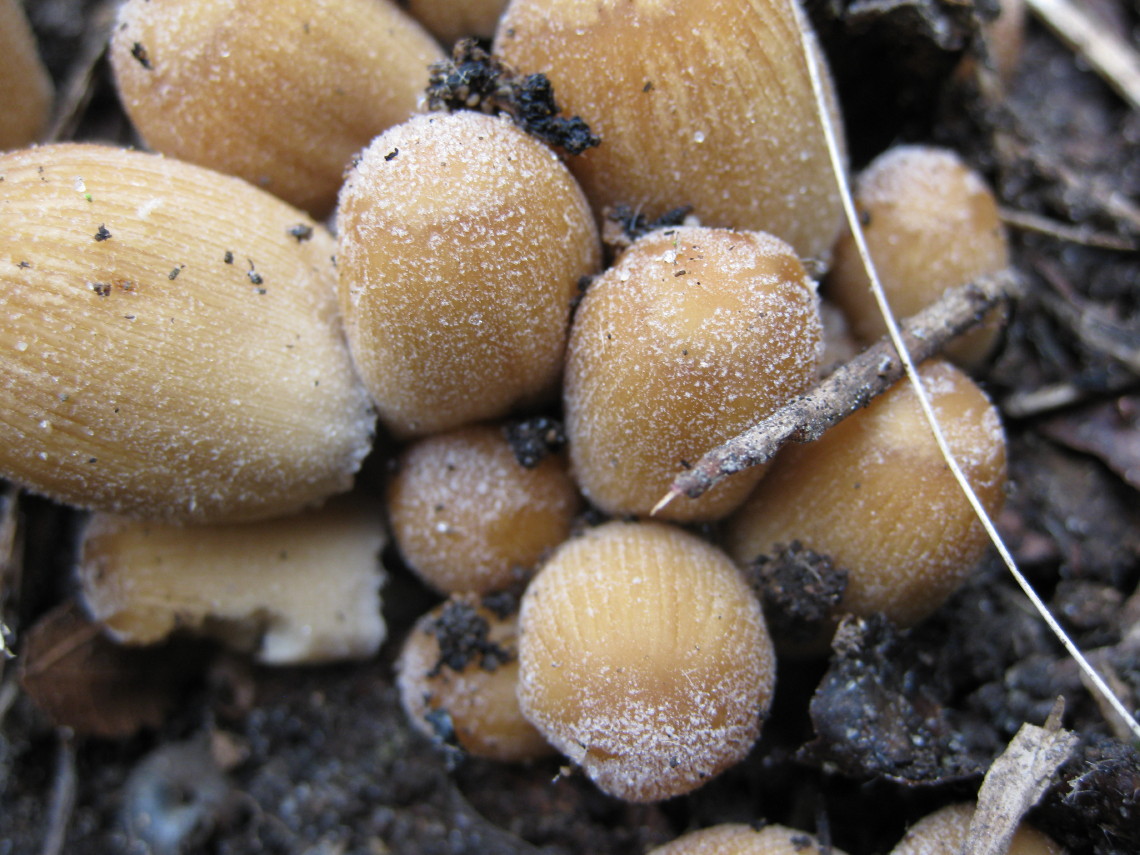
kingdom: Fungi
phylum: Basidiomycota
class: Agaricomycetes
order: Agaricales
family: Psathyrellaceae
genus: Coprinellus
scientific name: Coprinellus micaceus
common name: glimmer-blækhat
